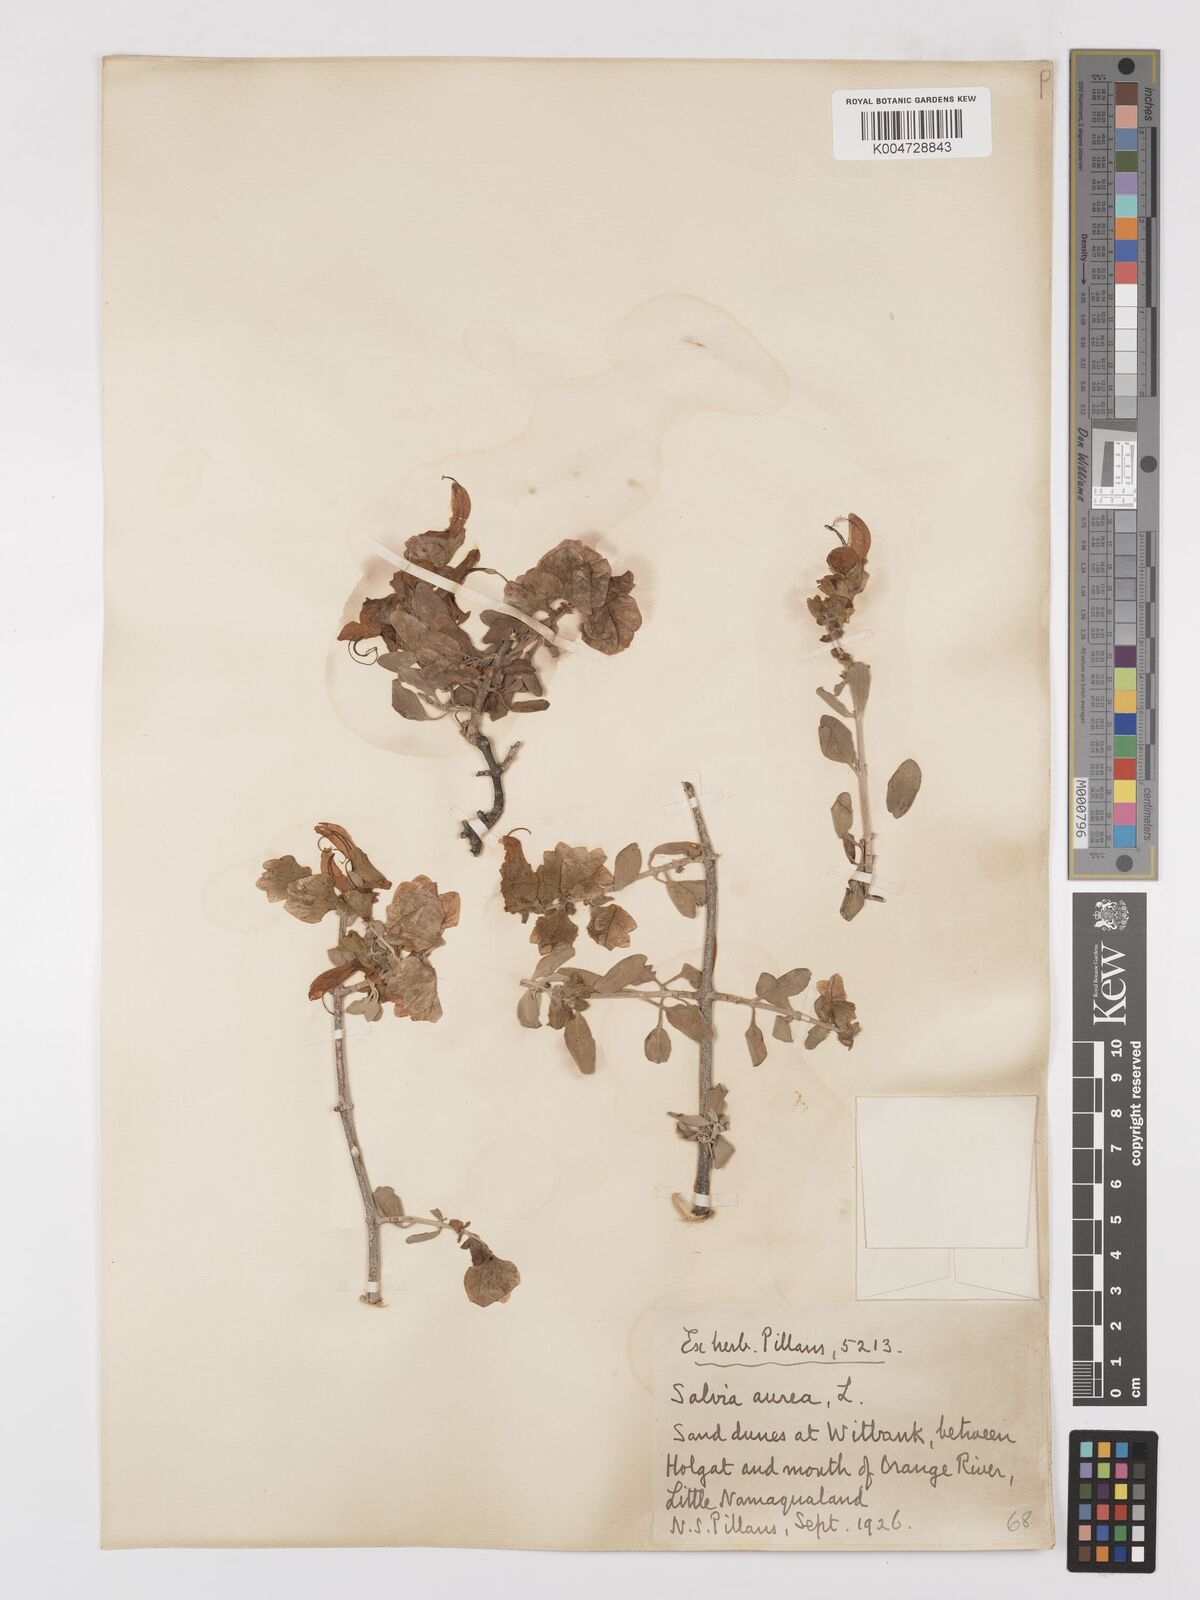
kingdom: Plantae
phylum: Tracheophyta
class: Magnoliopsida
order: Lamiales
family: Lamiaceae
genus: Salvia
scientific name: Salvia aurea
